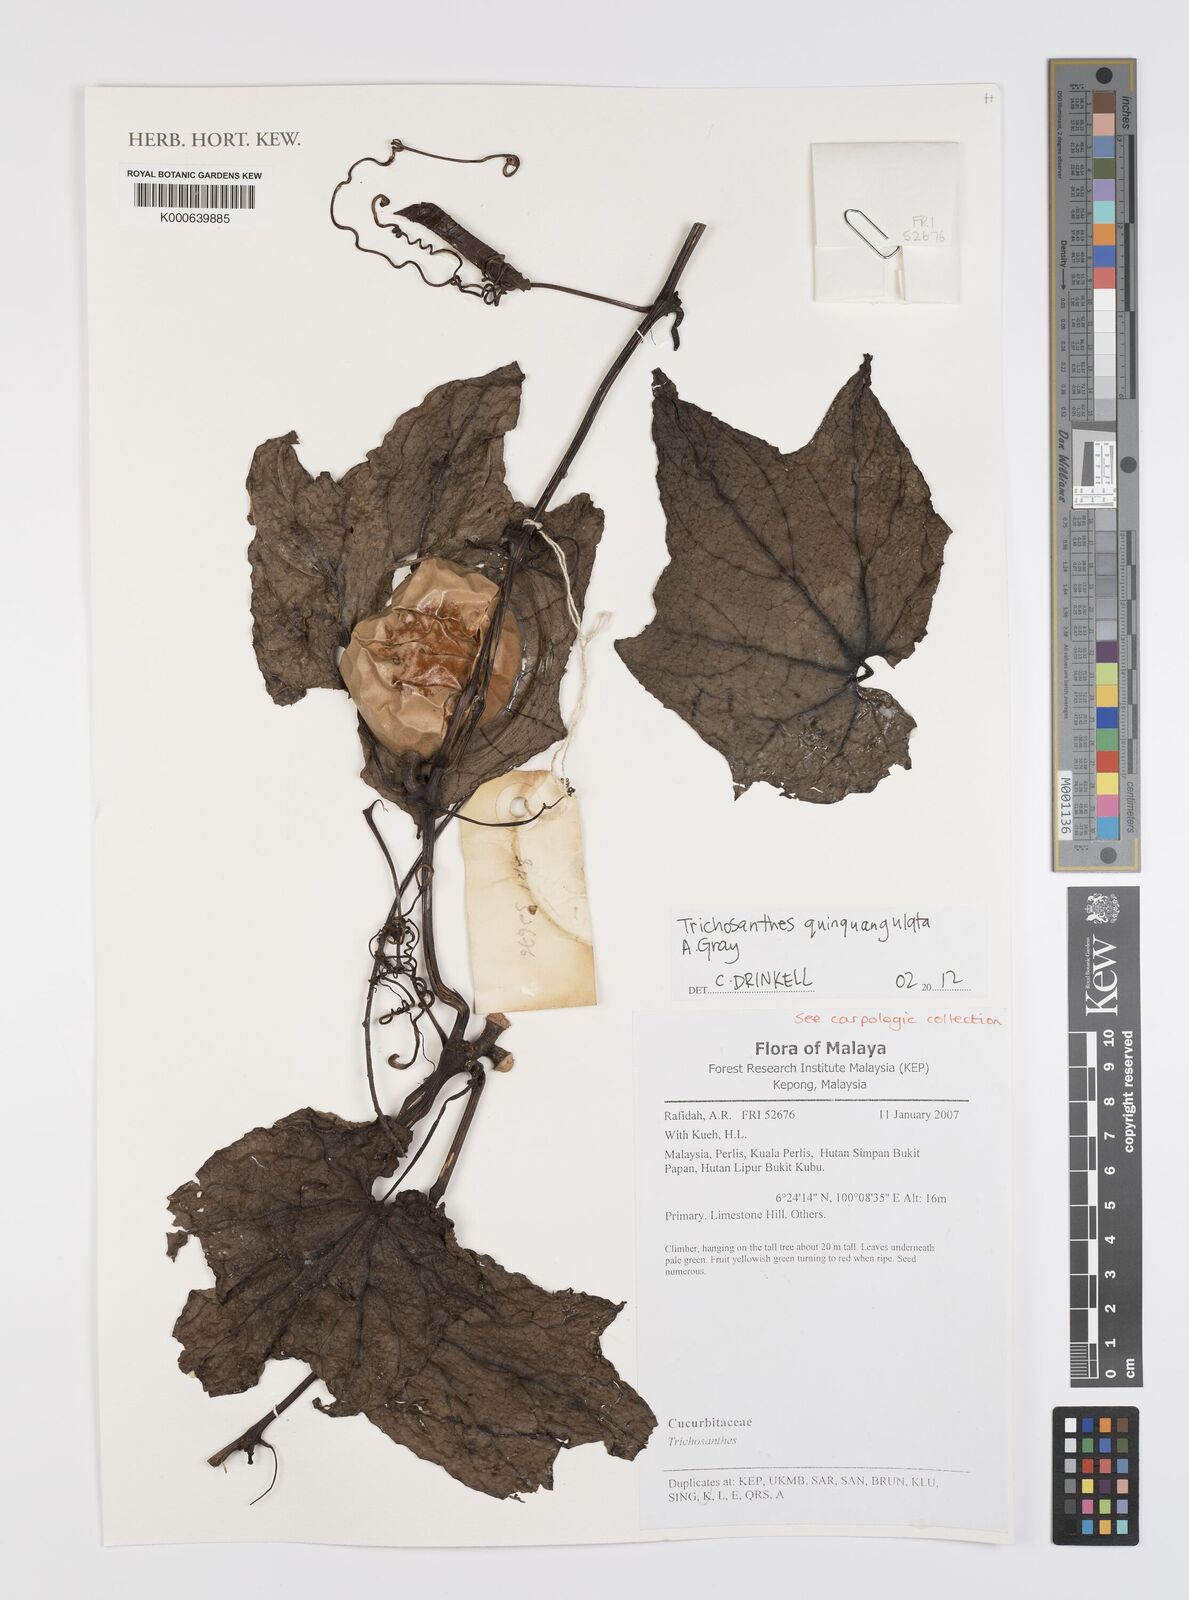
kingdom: Plantae
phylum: Tracheophyta
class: Magnoliopsida
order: Cucurbitales
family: Cucurbitaceae
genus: Trichosanthes
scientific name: Trichosanthes quinquangulata
